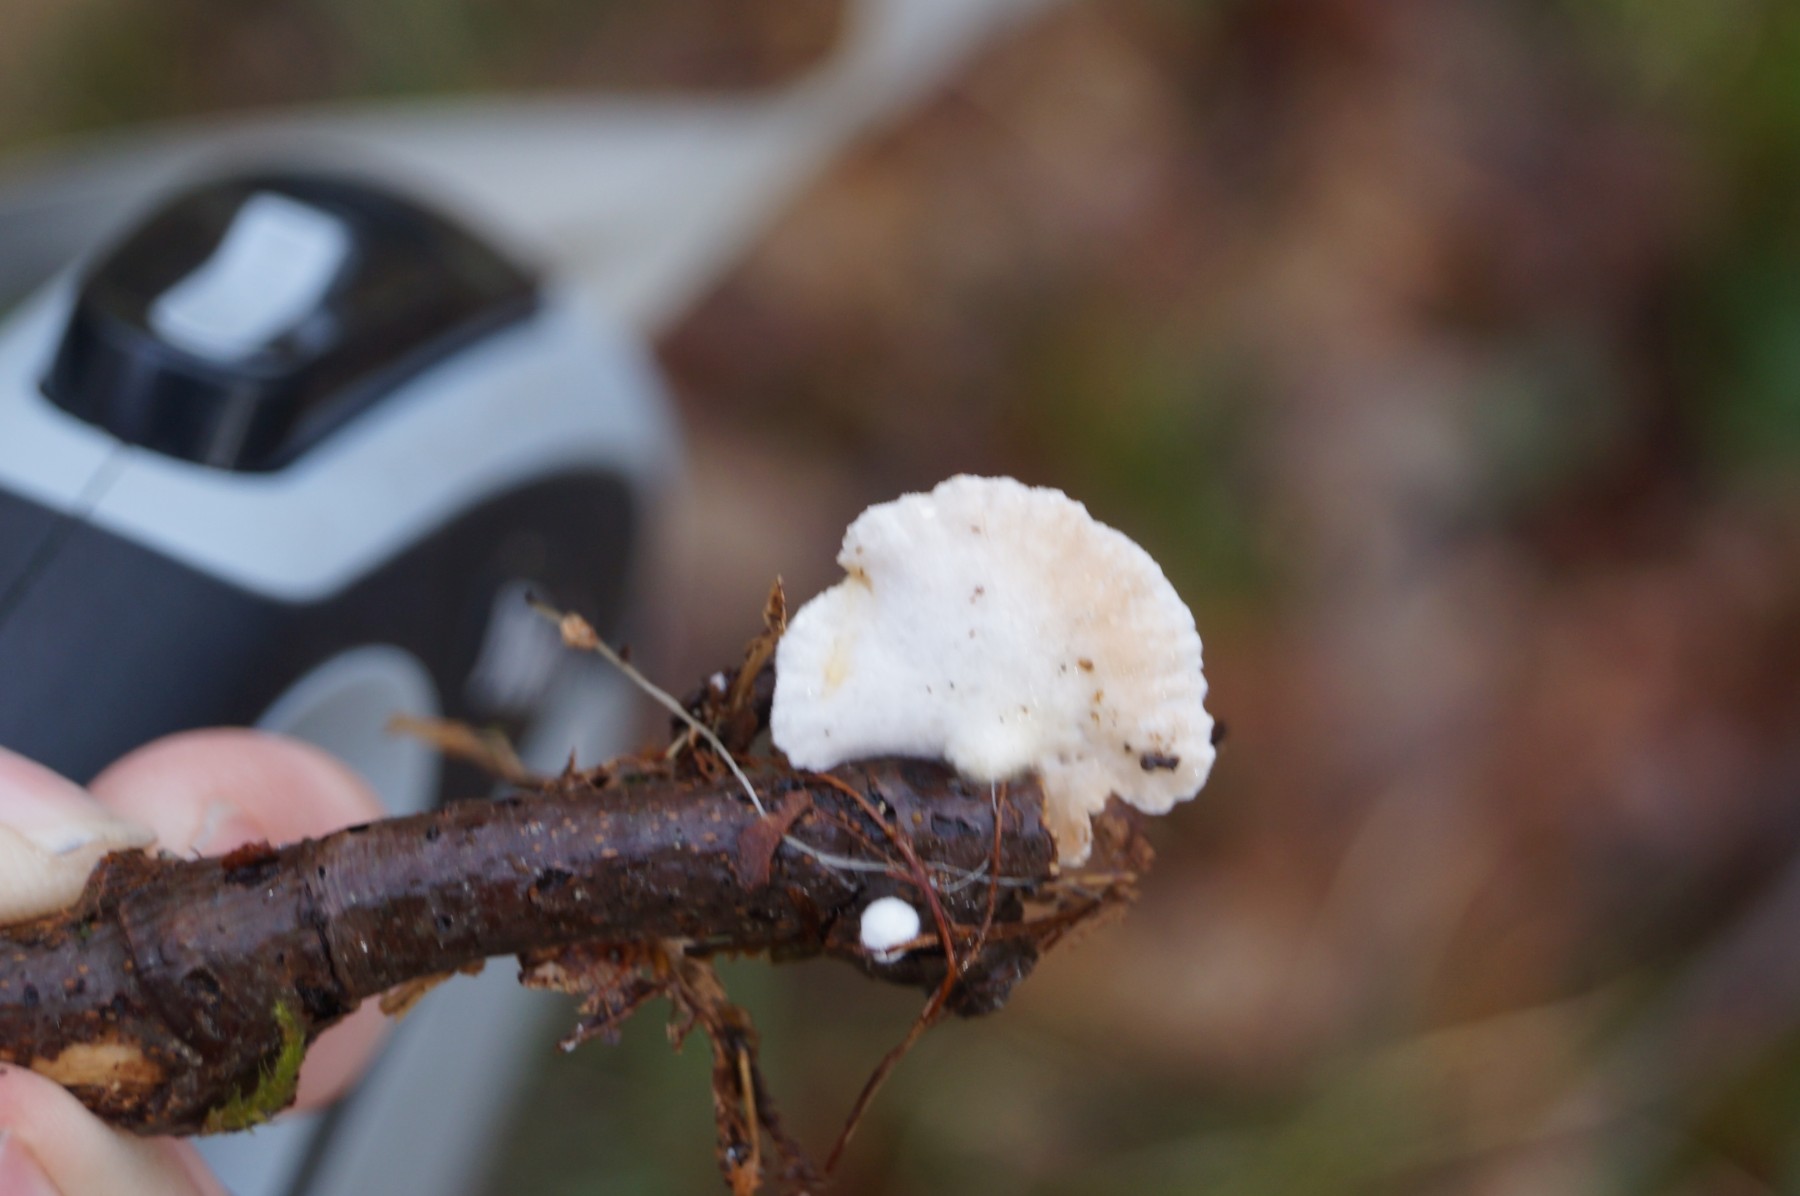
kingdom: Fungi
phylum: Basidiomycota
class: Agaricomycetes
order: Agaricales
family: Crepidotaceae
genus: Crepidotus
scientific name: Crepidotus
